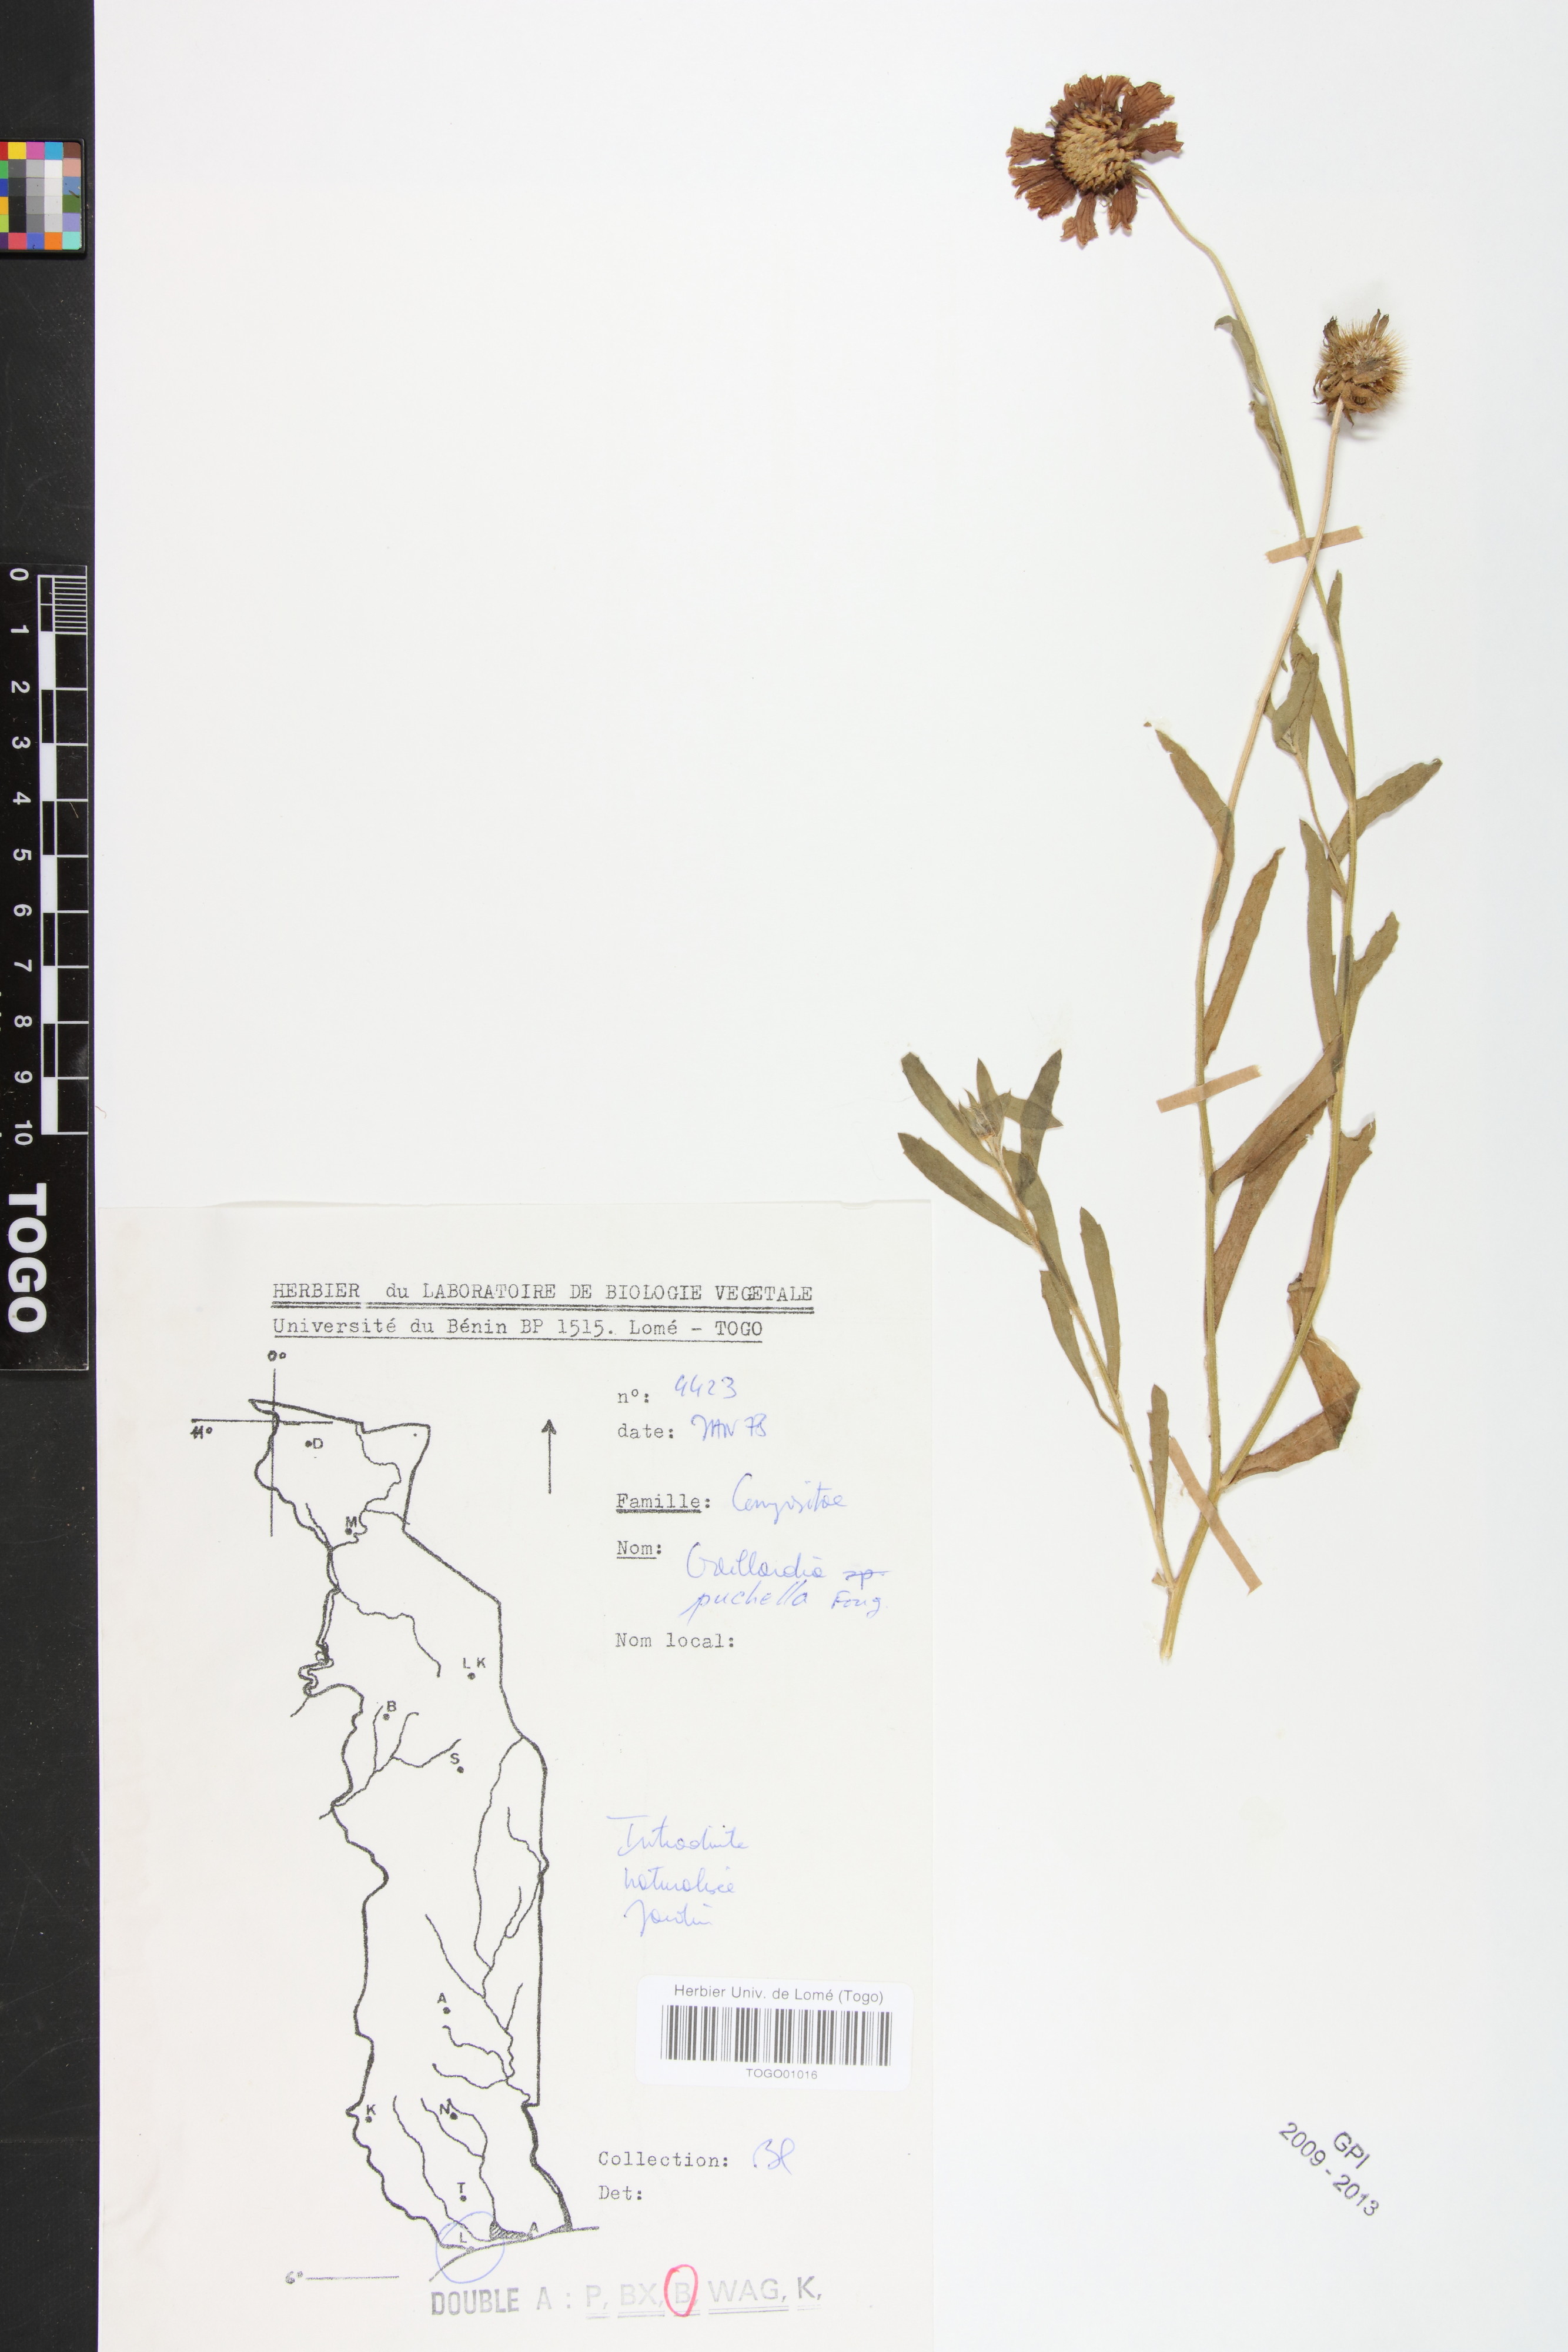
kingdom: Plantae
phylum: Tracheophyta
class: Magnoliopsida
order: Asterales
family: Asteraceae
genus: Gaillardia
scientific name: Gaillardia pulchella
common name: Firewheel
